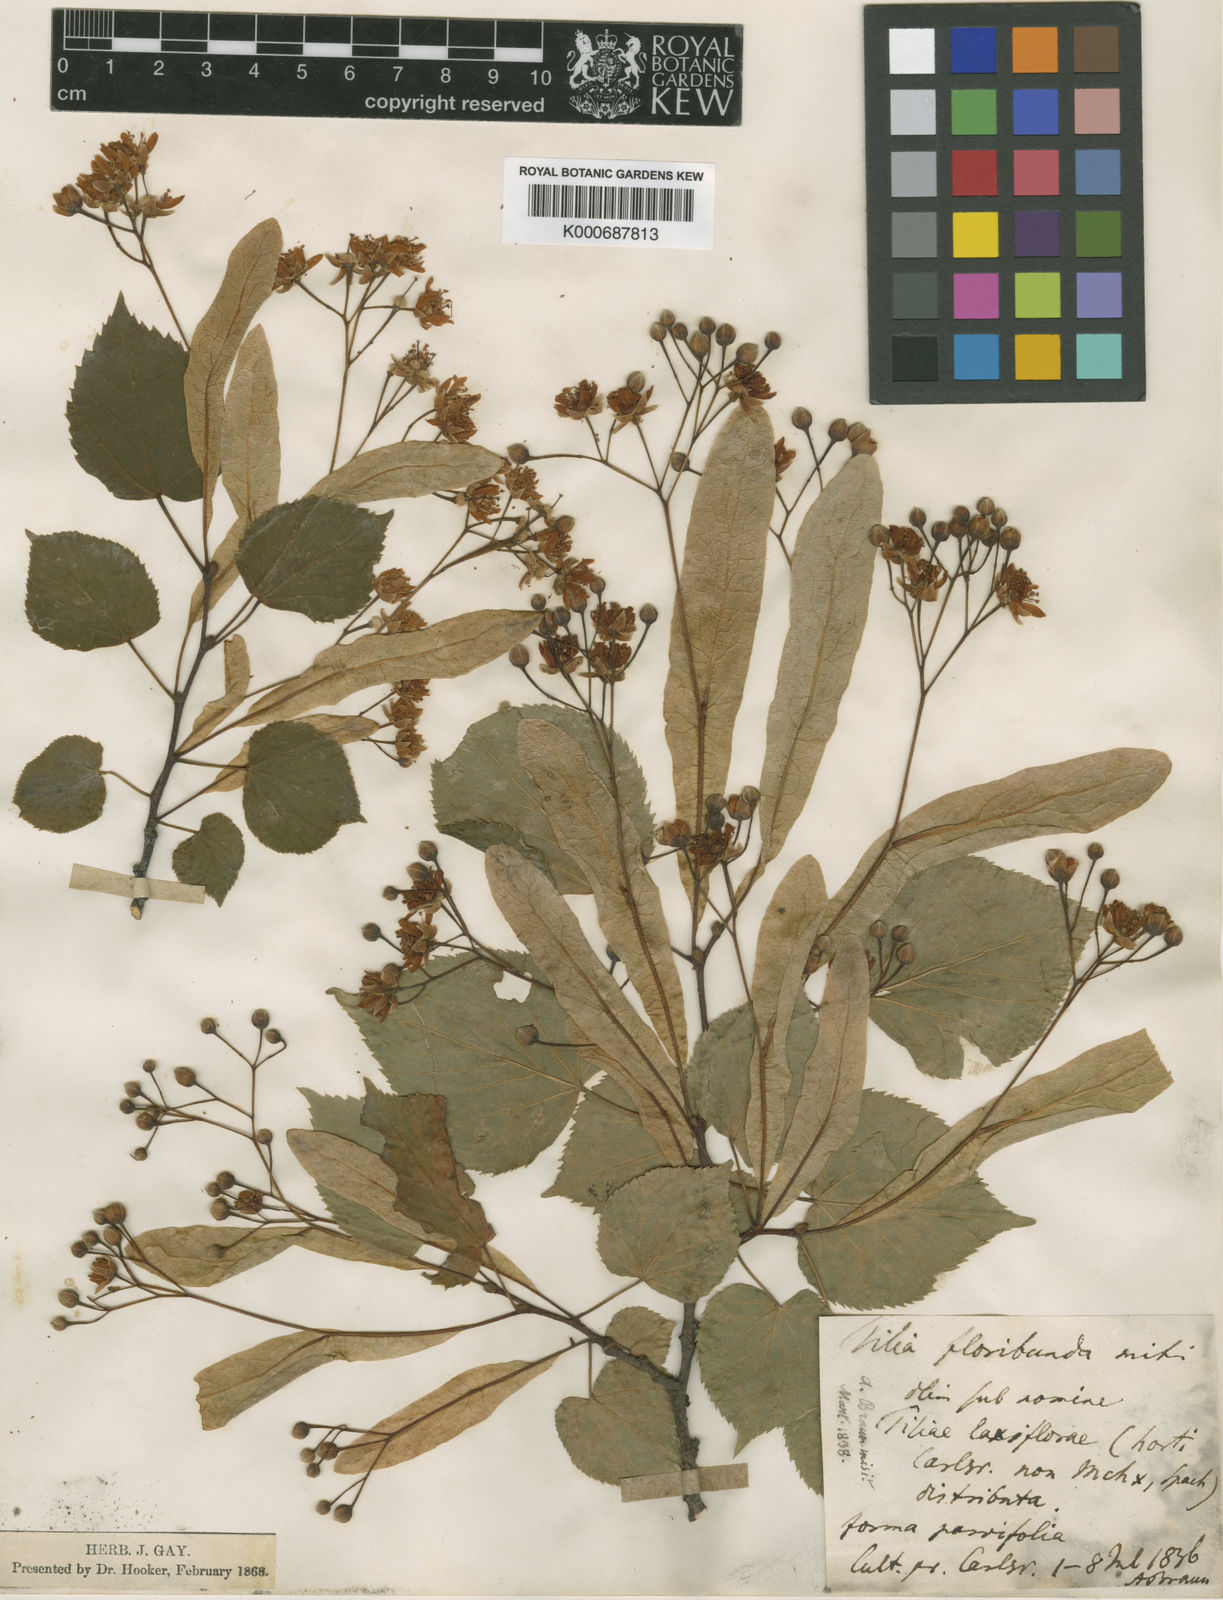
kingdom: Plantae
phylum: Tracheophyta
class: Magnoliopsida
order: Malvales
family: Malvaceae
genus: Tilia
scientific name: Tilia flavescens
